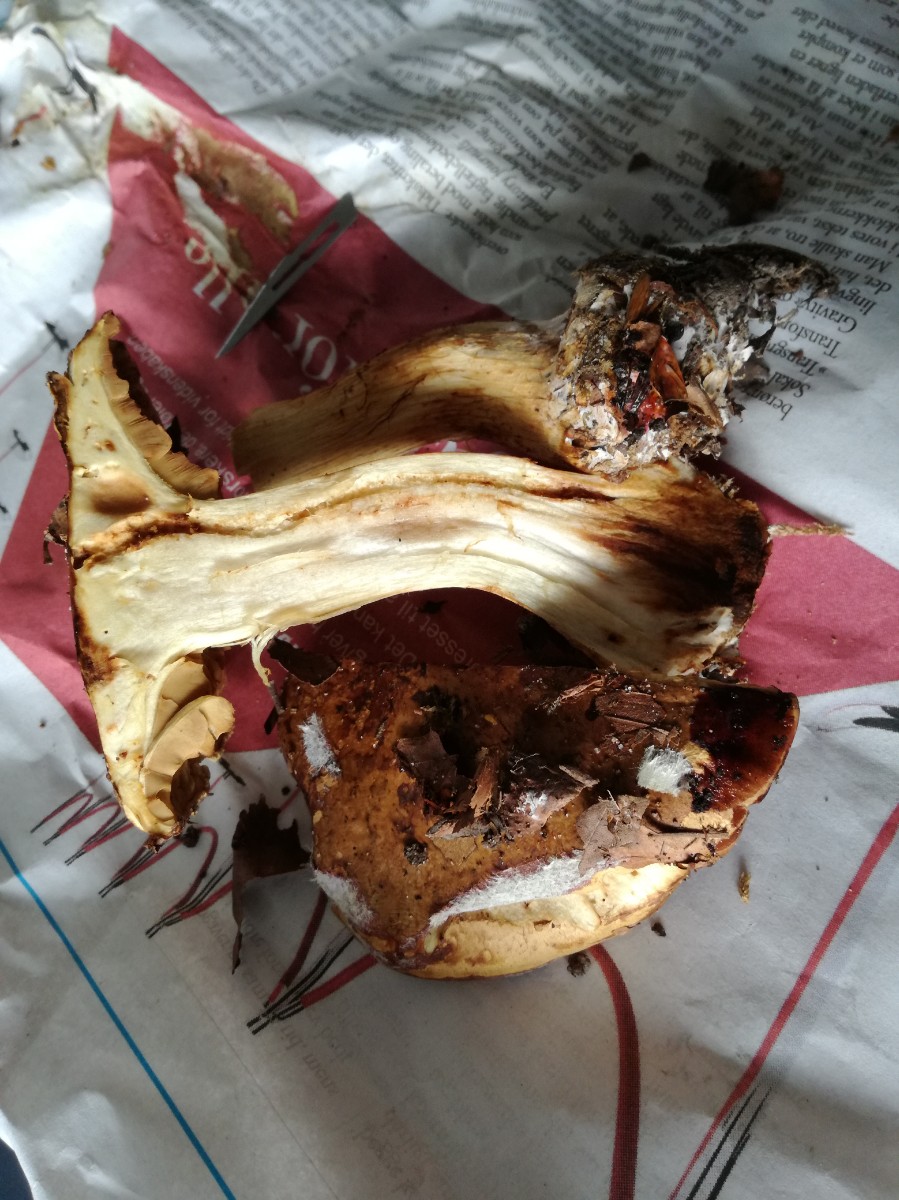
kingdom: Fungi
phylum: Basidiomycota
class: Agaricomycetes
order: Agaricales
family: Cortinariaceae
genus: Calonarius
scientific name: Calonarius sulfurinus
